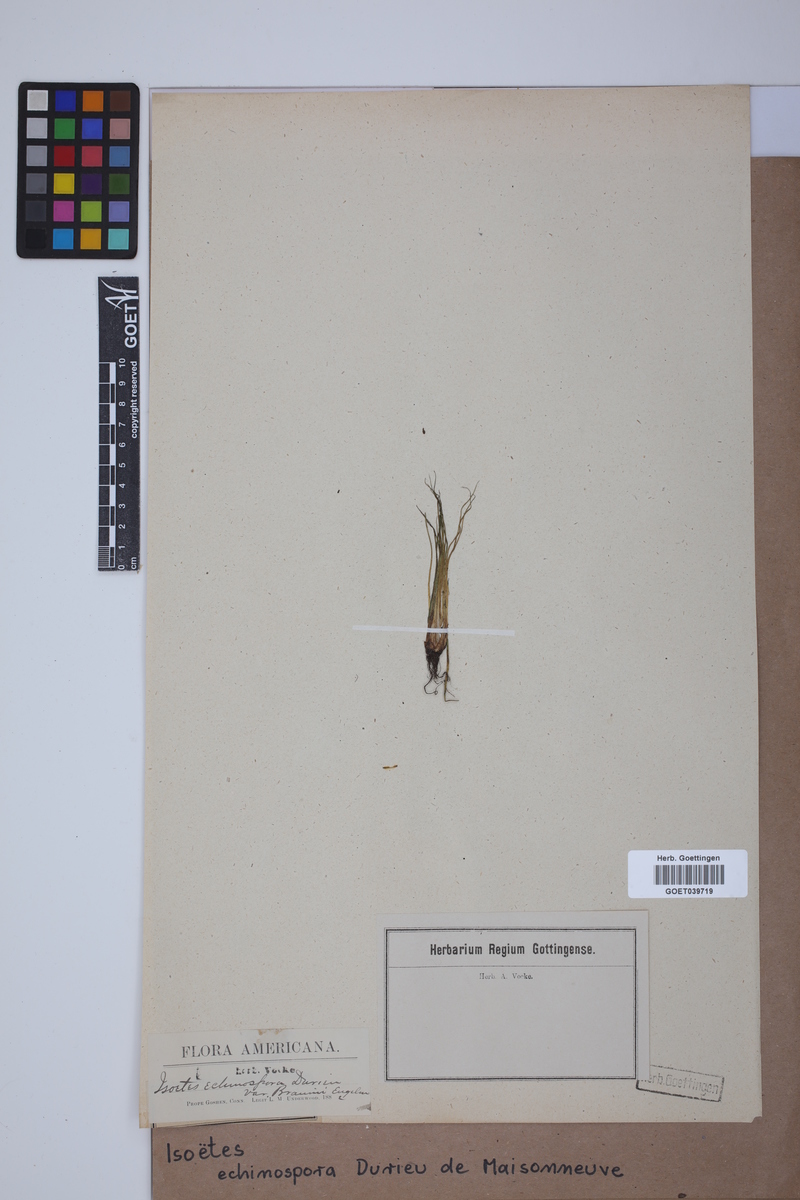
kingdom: Plantae
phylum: Tracheophyta
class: Lycopodiopsida
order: Isoetales
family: Isoetaceae
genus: Isoetes
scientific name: Isoetes echinospora
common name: Spring quillwort
